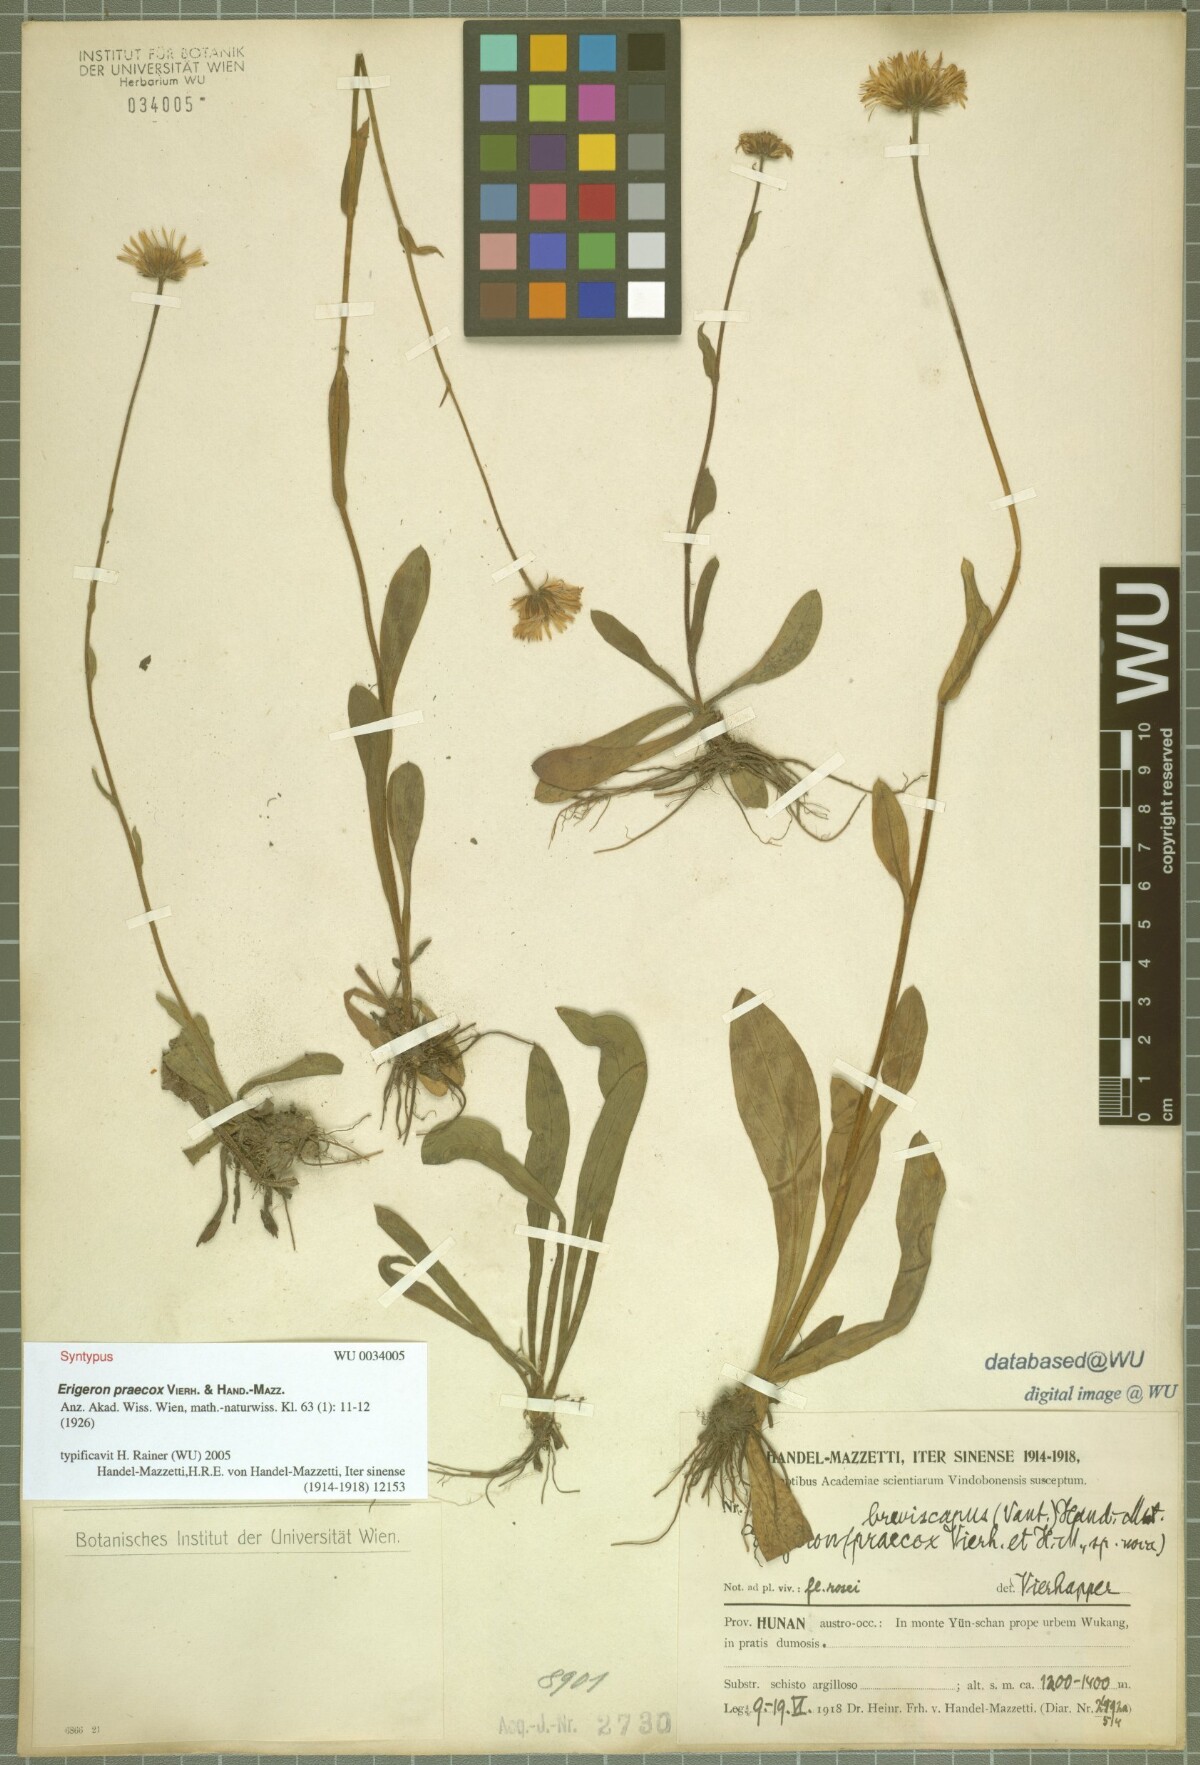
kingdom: Plantae
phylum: Tracheophyta
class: Magnoliopsida
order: Asterales
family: Asteraceae
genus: Erigeron
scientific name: Erigeron breviscapus
